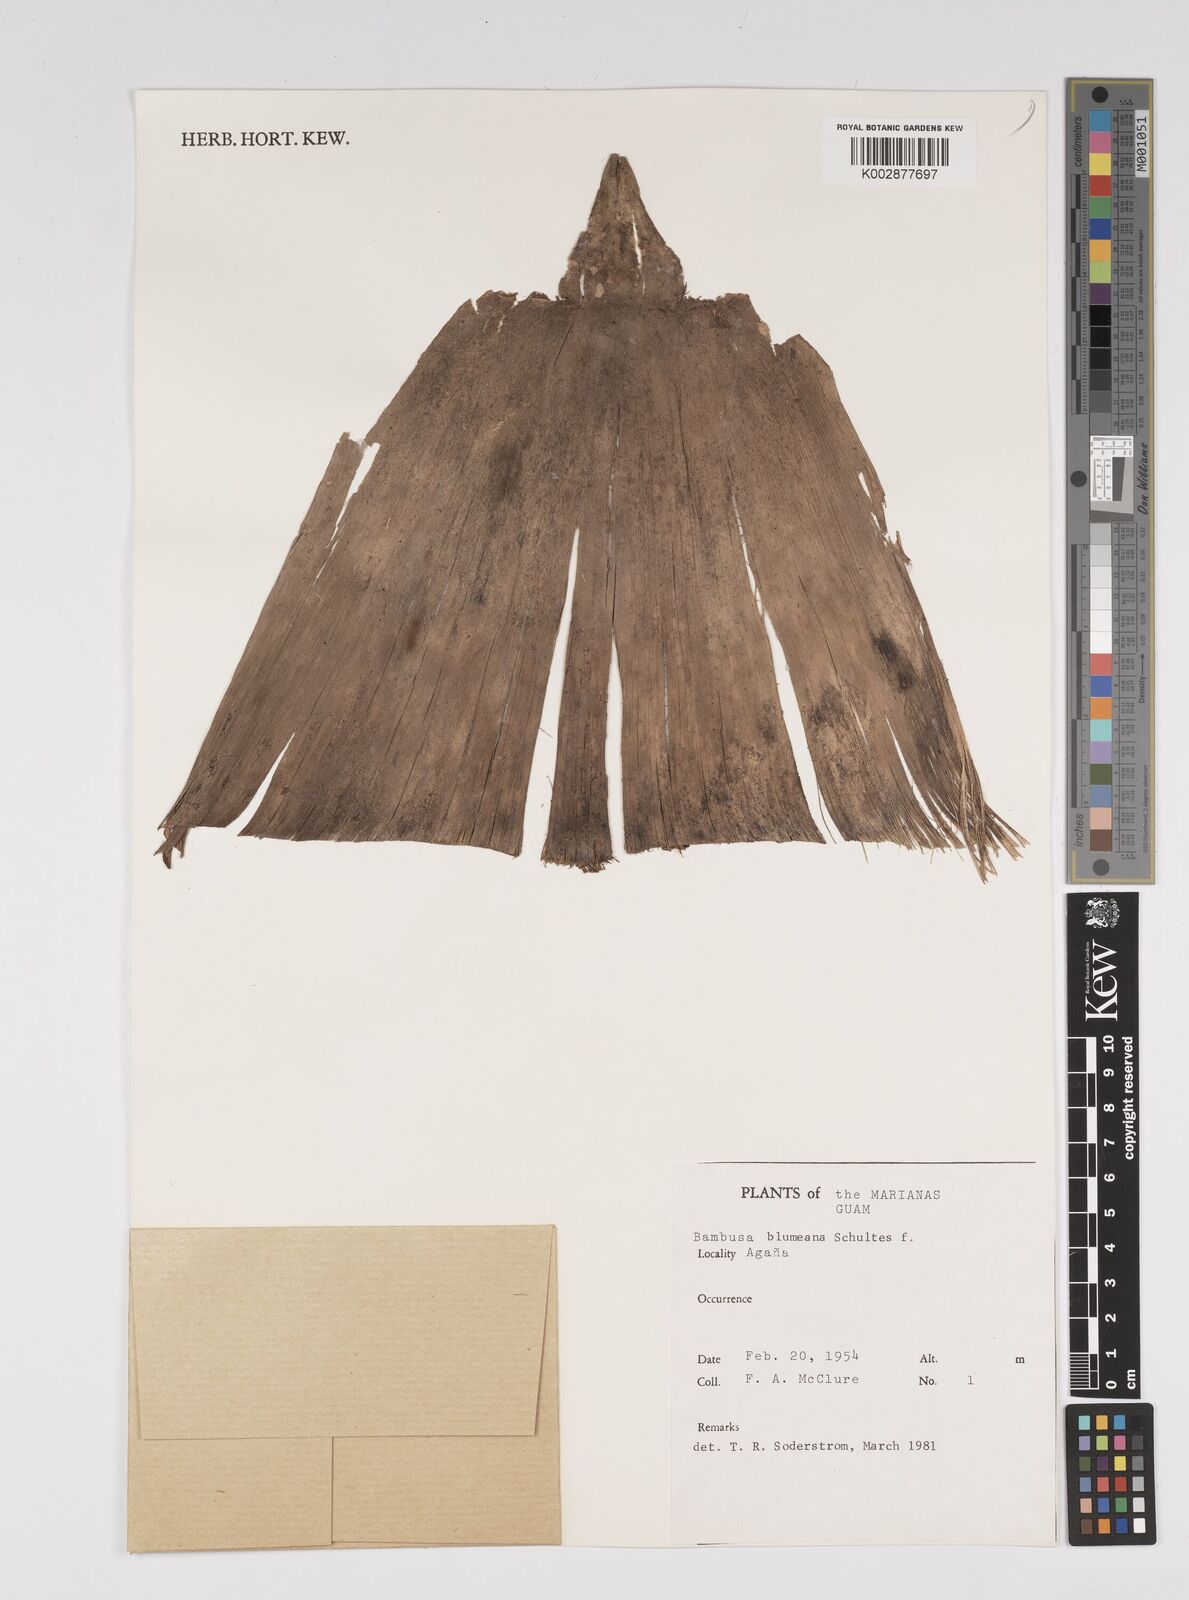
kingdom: Plantae
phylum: Tracheophyta
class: Liliopsida
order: Poales
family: Poaceae
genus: Bambusa
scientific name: Bambusa spinosa
